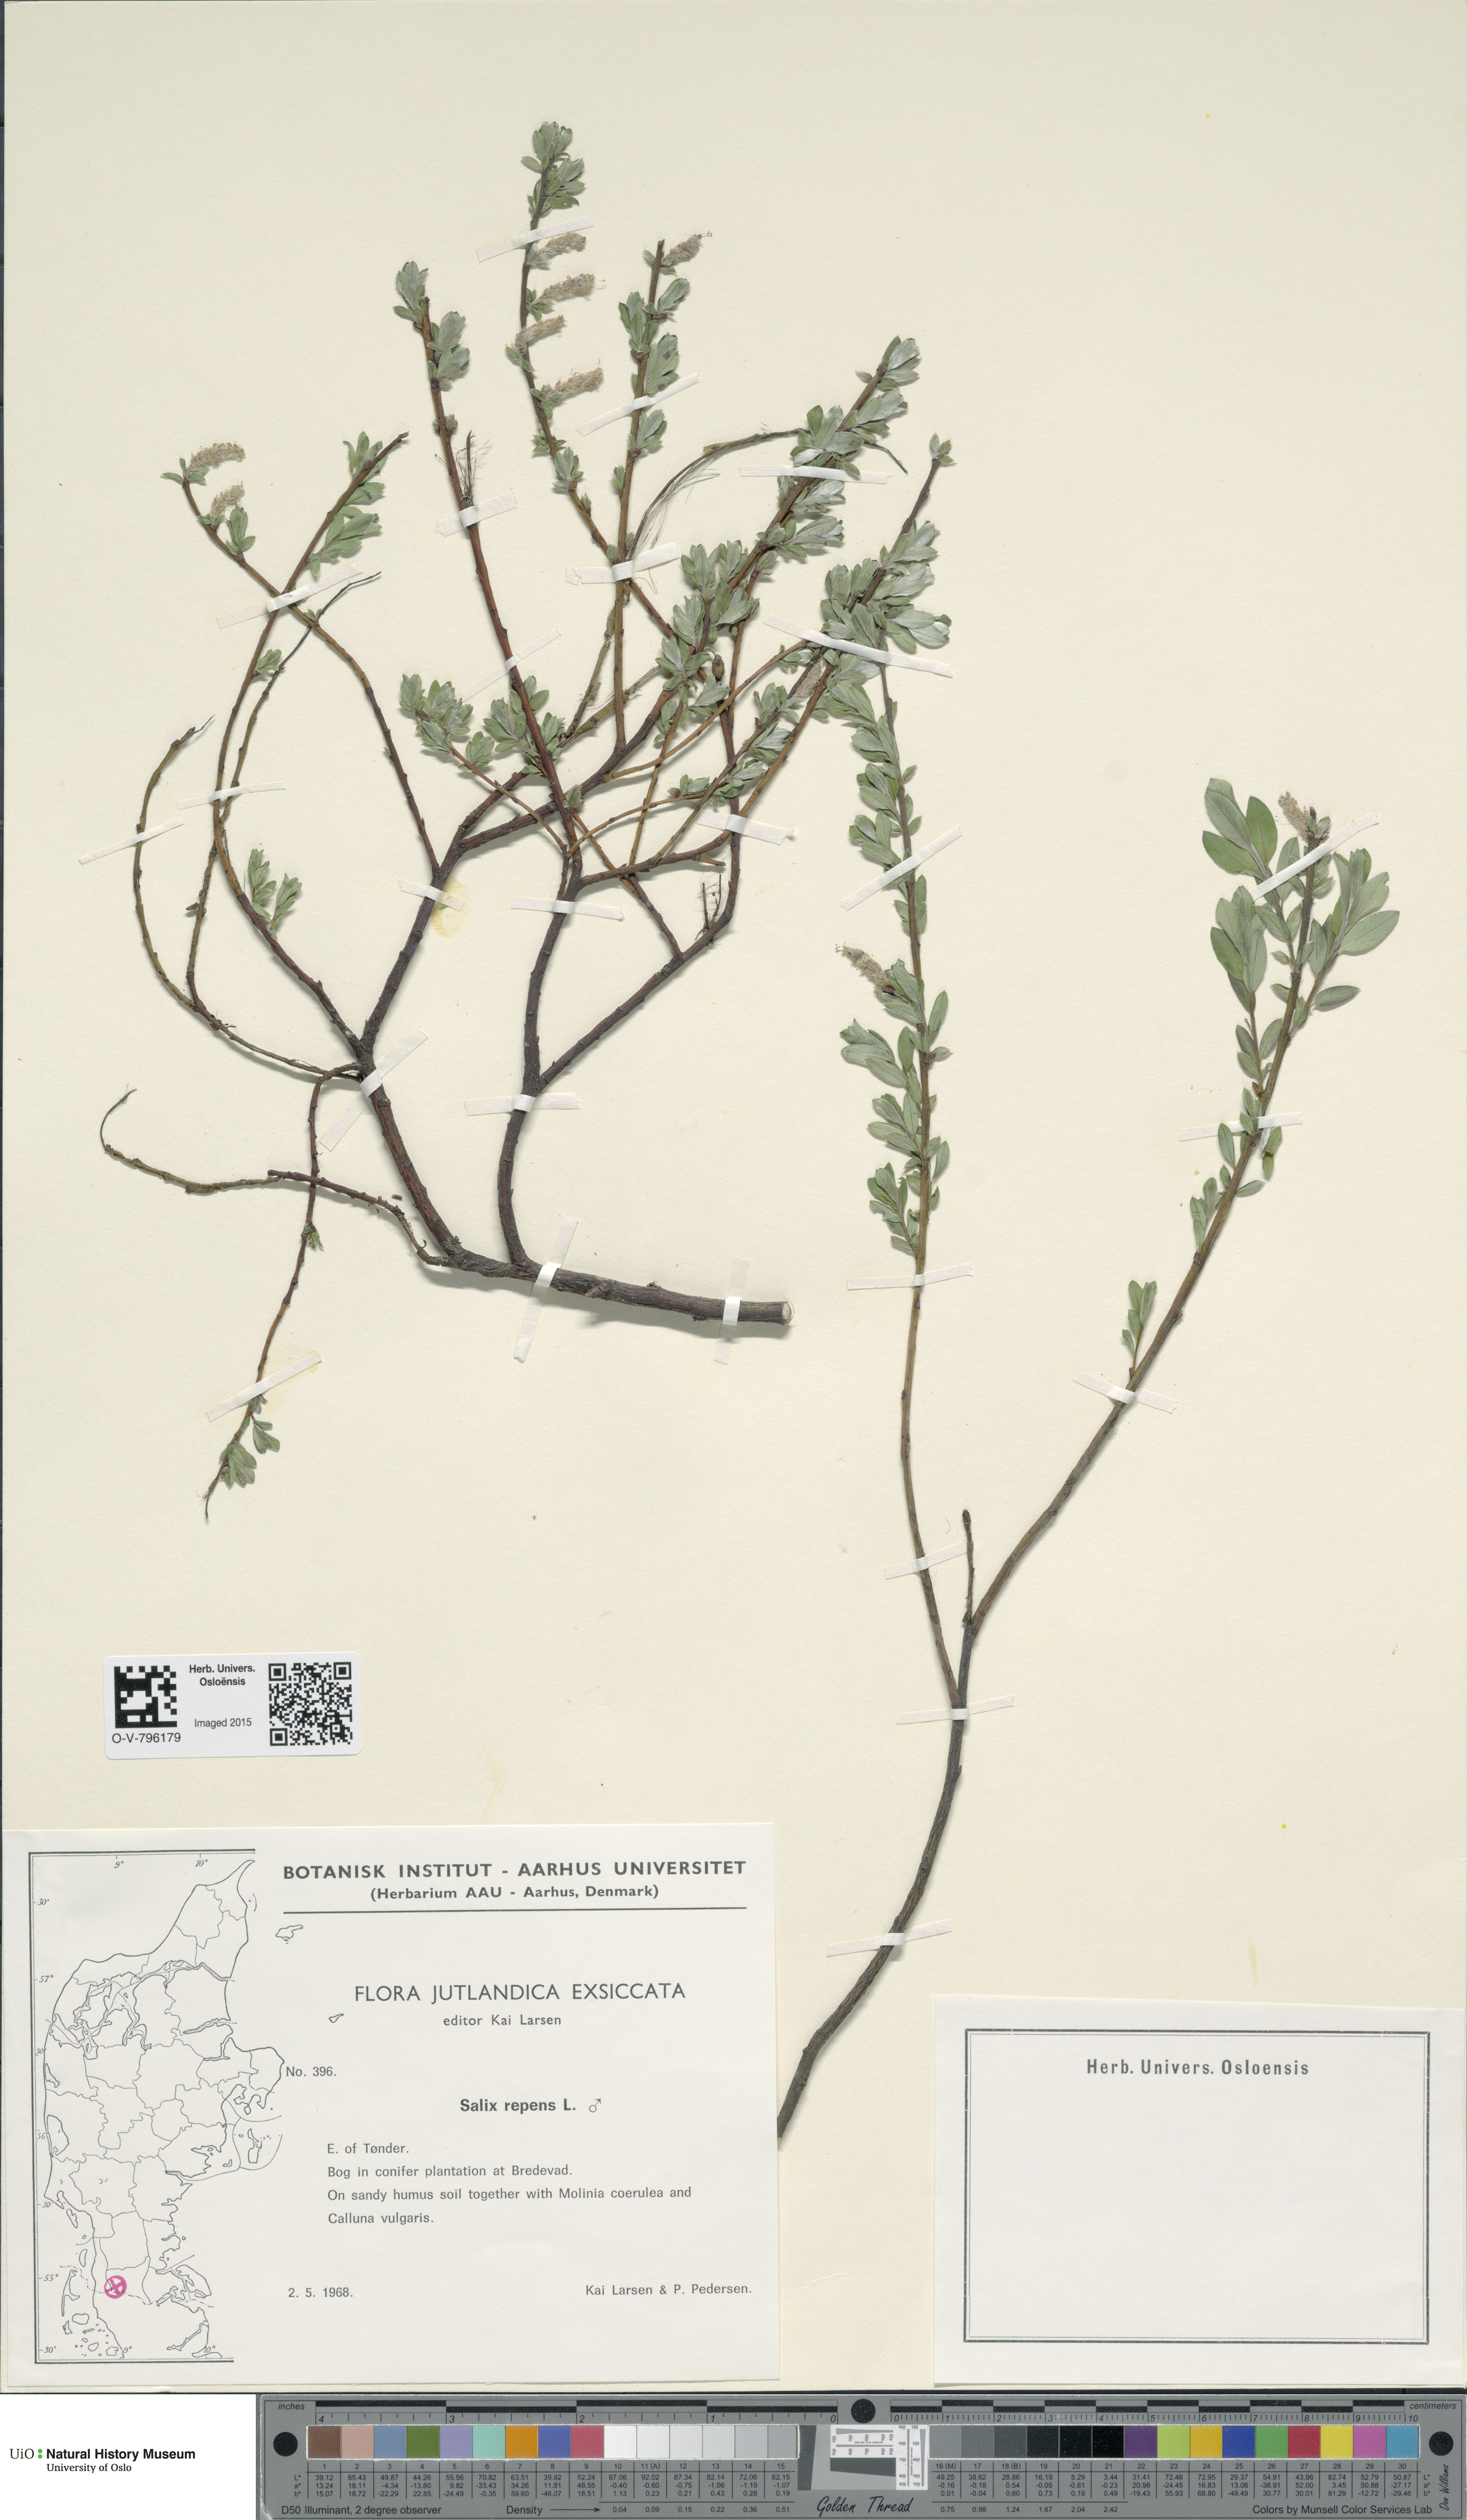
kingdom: Plantae
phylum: Tracheophyta
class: Magnoliopsida
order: Malpighiales
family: Salicaceae
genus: Salix
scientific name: Salix repens
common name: Creeping willow
